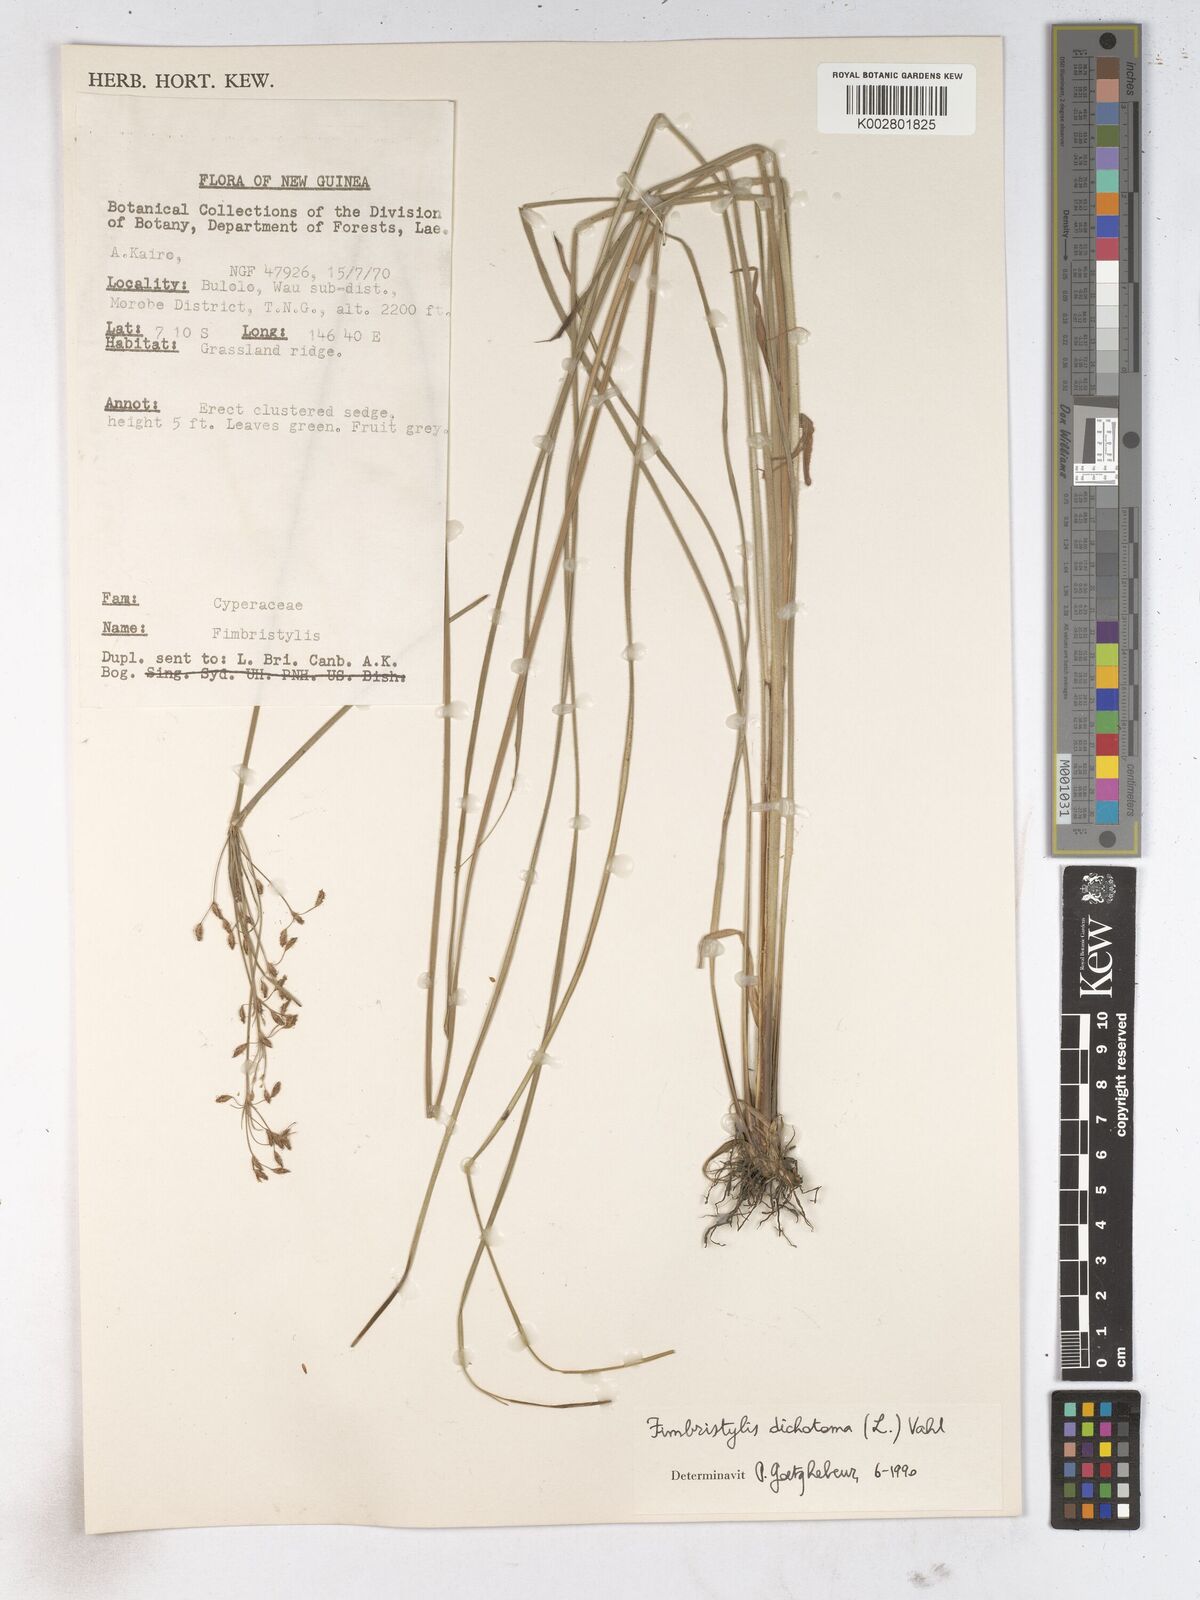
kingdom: Plantae
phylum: Tracheophyta
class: Liliopsida
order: Poales
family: Cyperaceae
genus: Fimbristylis
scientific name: Fimbristylis dichotoma
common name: Forked fimbry
